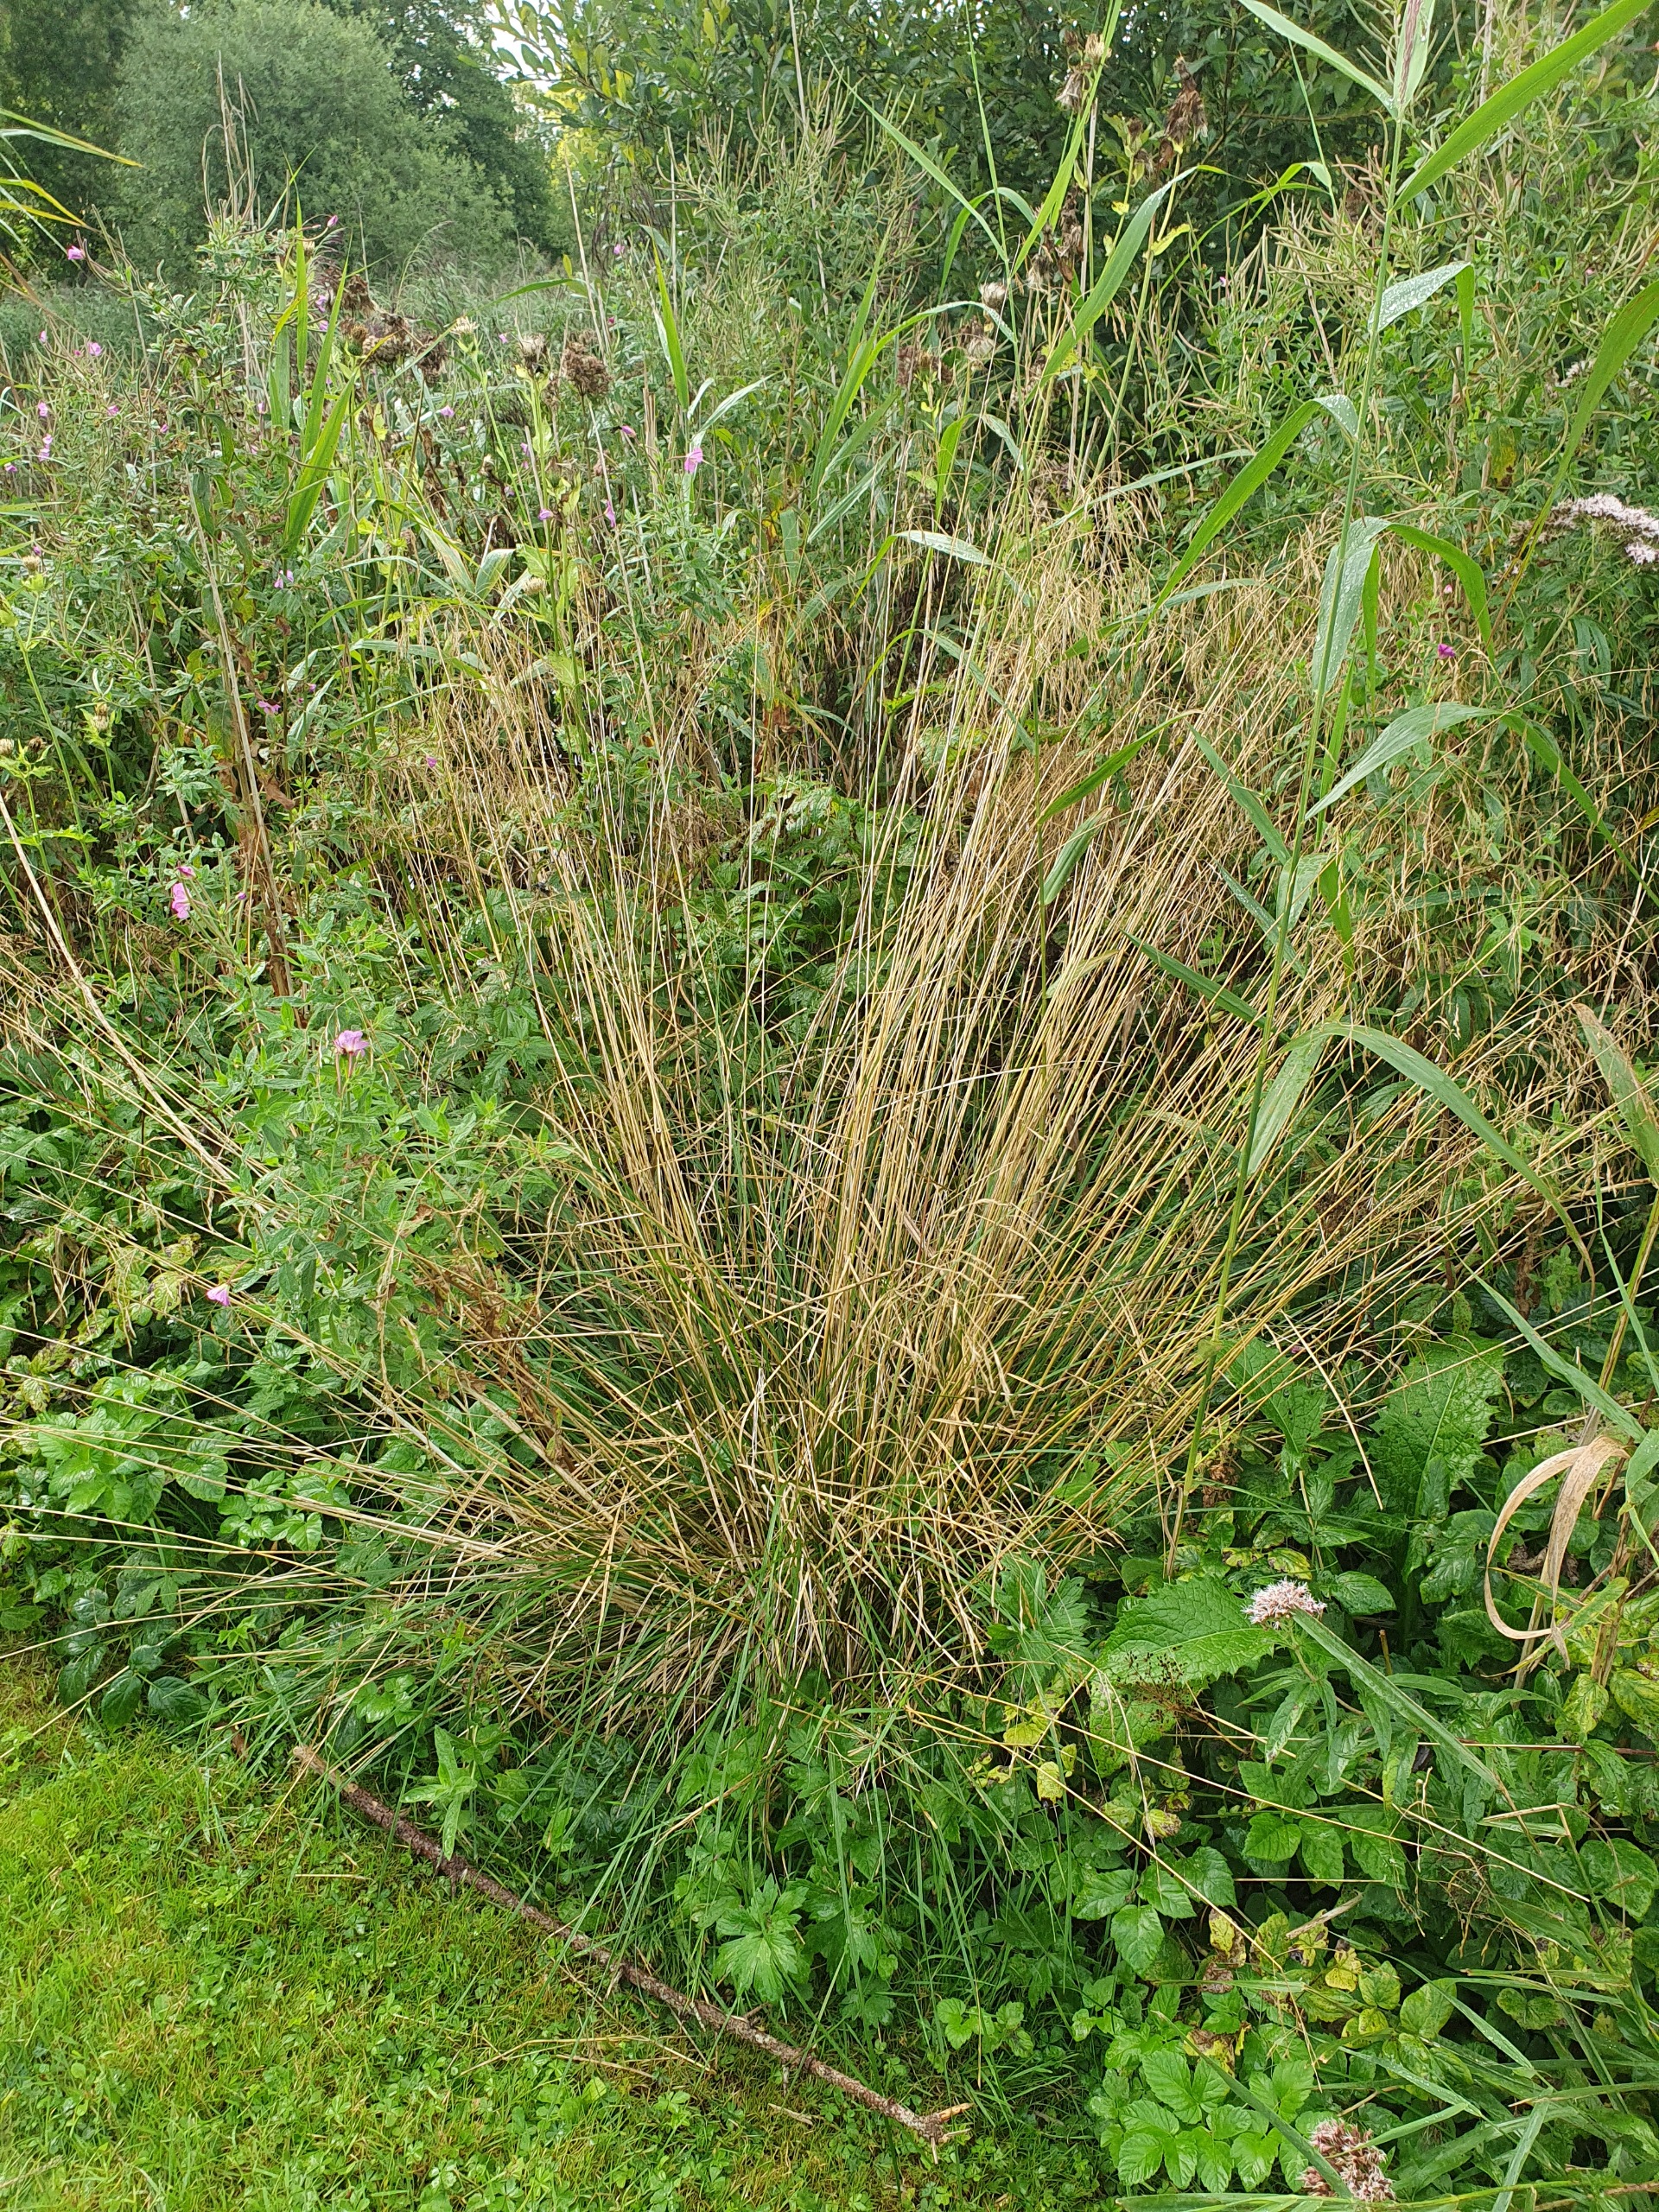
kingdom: Plantae
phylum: Tracheophyta
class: Liliopsida
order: Poales
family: Poaceae
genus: Deschampsia
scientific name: Deschampsia cespitosa
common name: Mose-bunke
